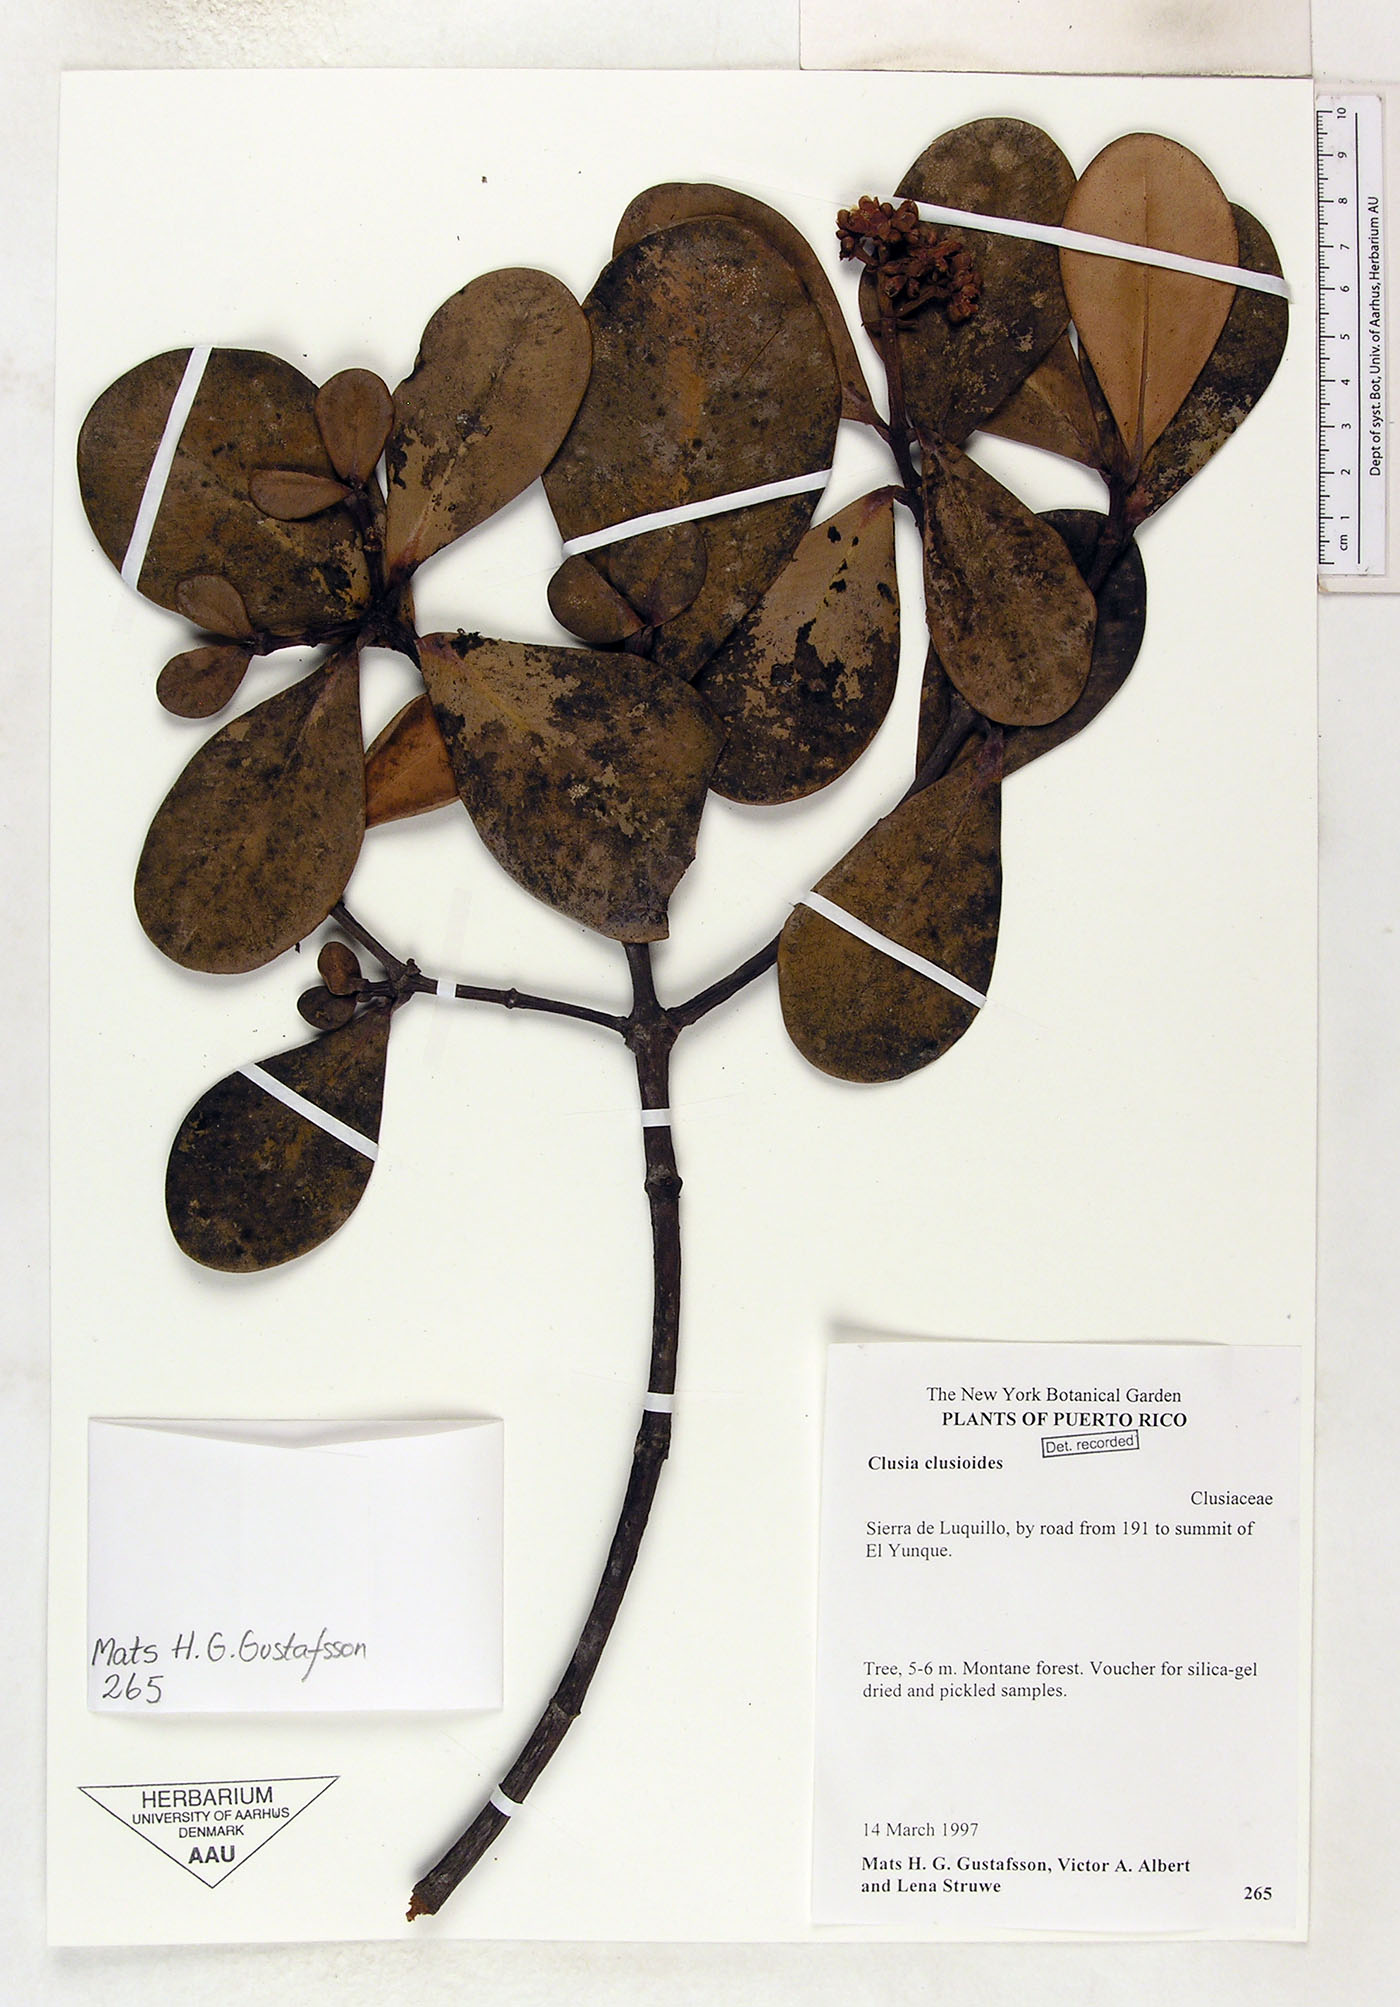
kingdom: Plantae
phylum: Tracheophyta
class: Magnoliopsida
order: Malpighiales
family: Clusiaceae
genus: Clusia
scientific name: Clusia clusioides
